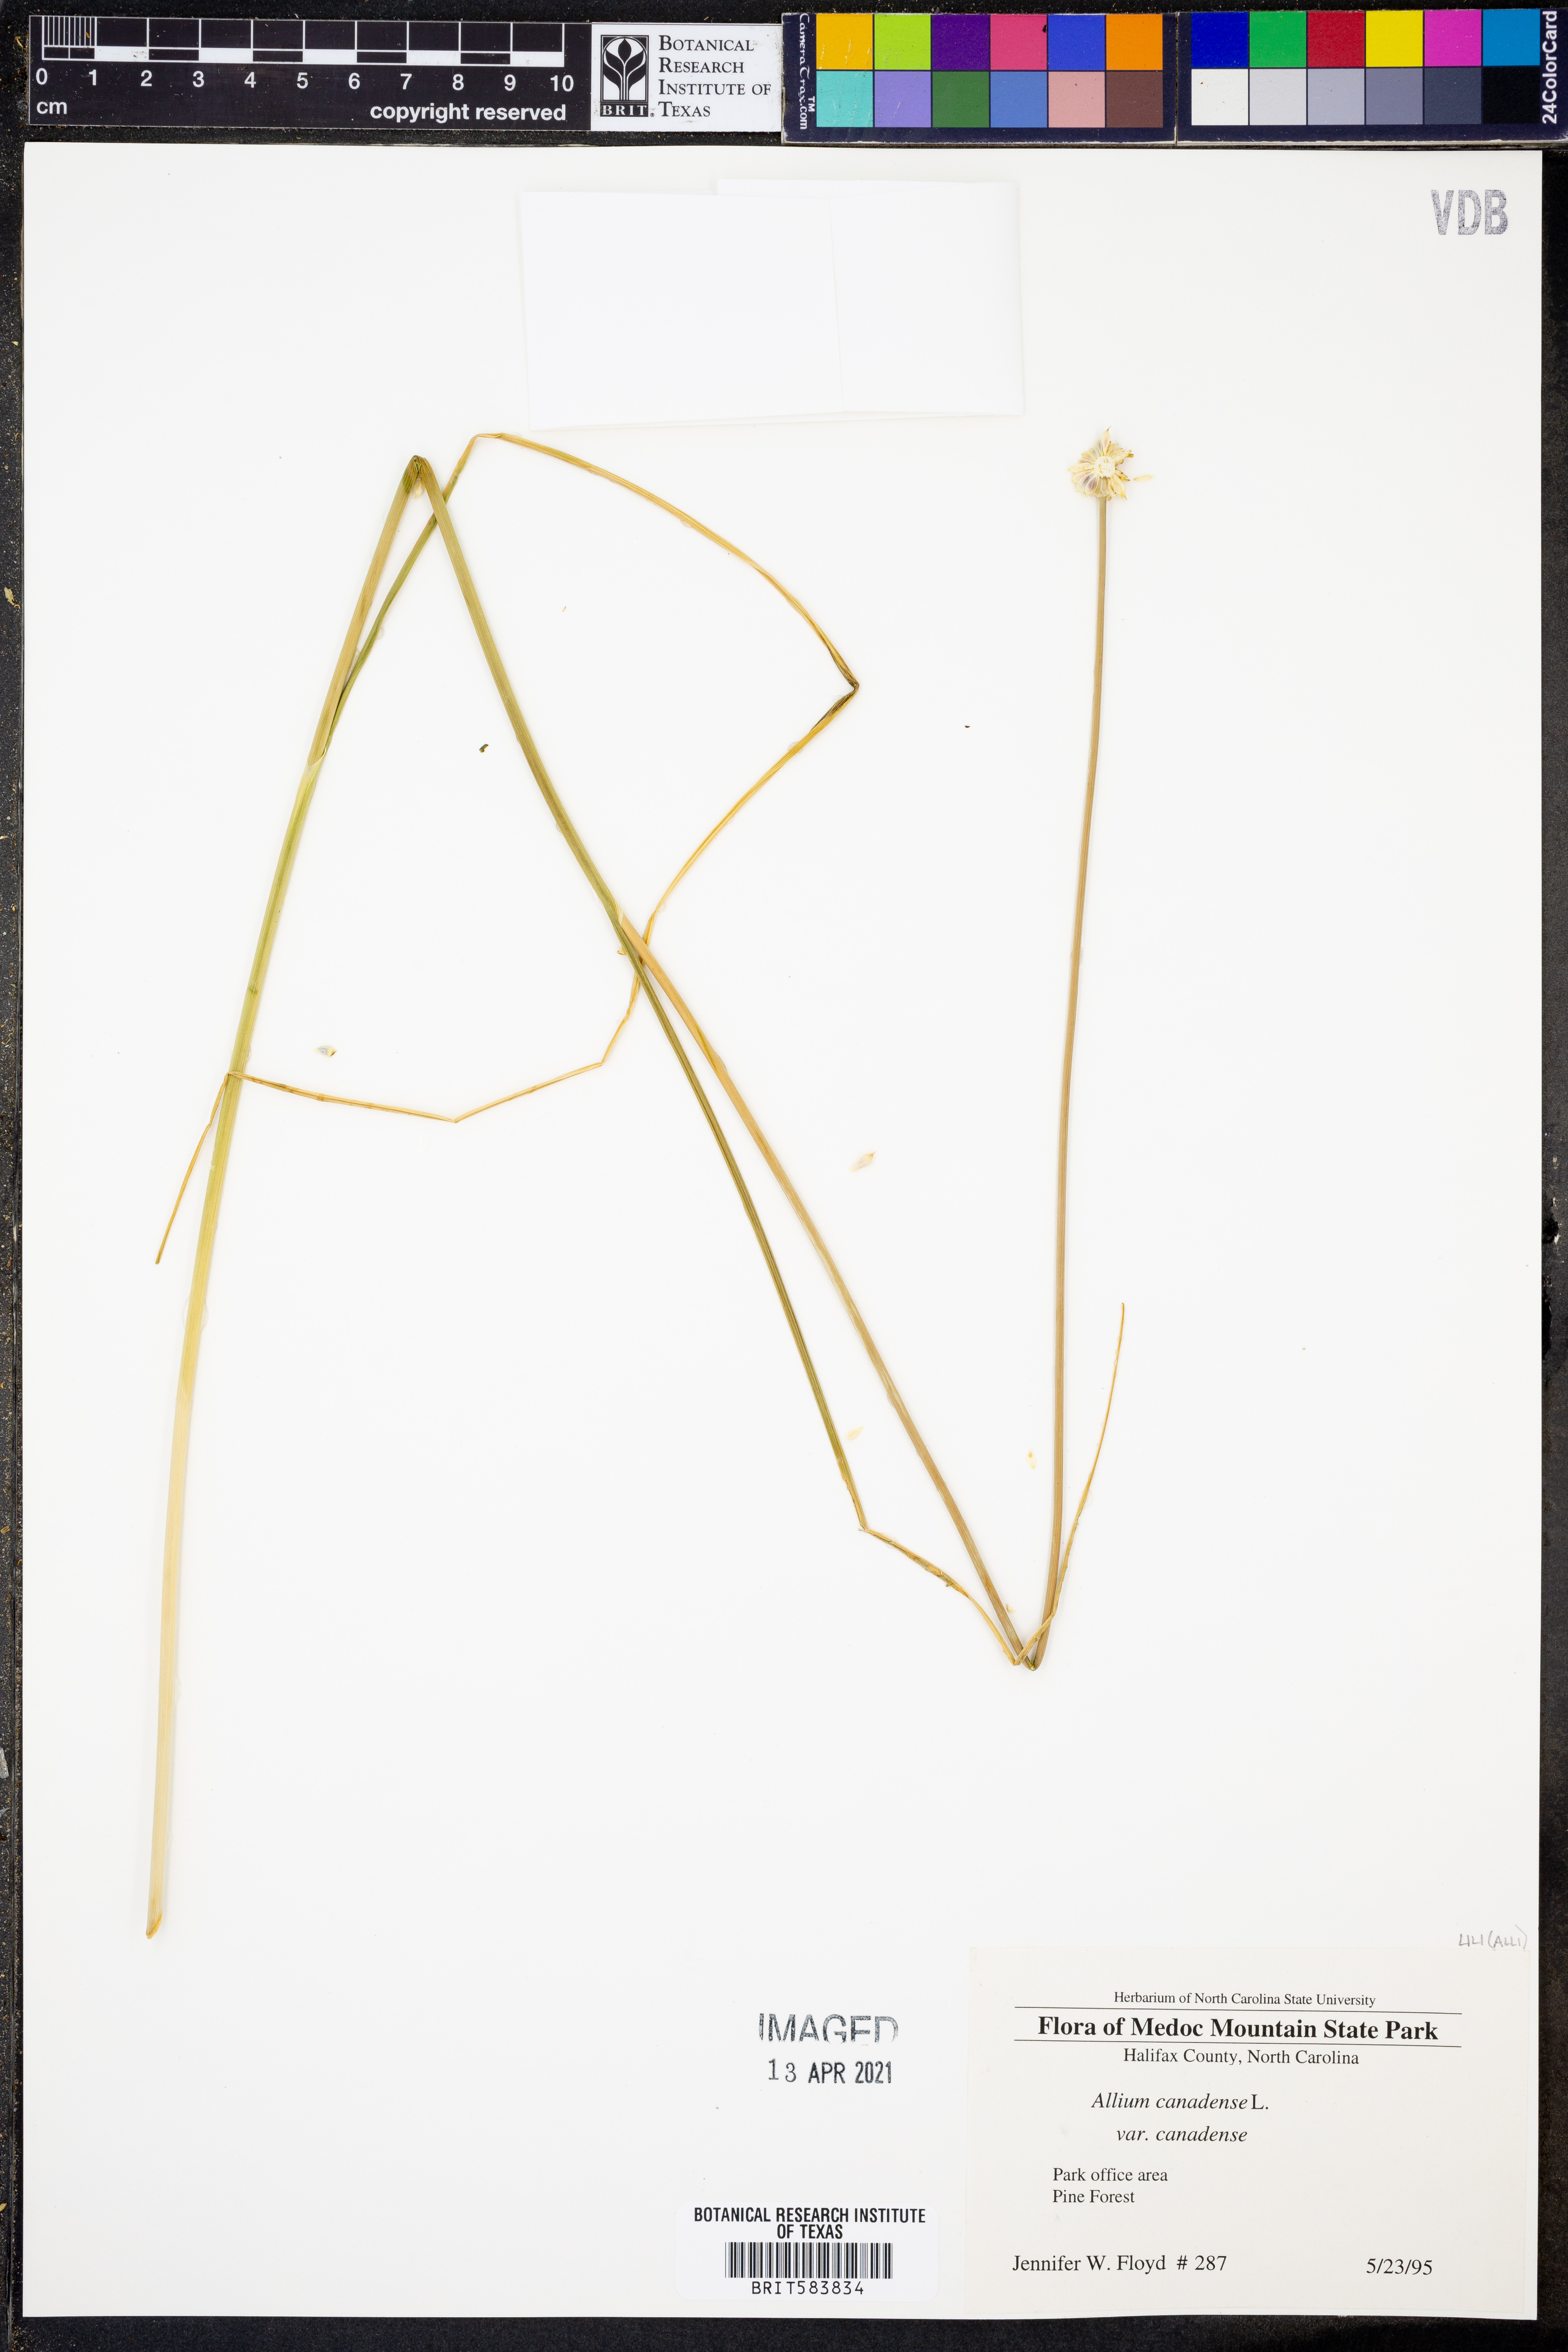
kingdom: Plantae
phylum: Tracheophyta
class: Liliopsida
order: Asparagales
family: Amaryllidaceae
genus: Allium
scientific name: Allium canadense
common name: Meadow garlic
